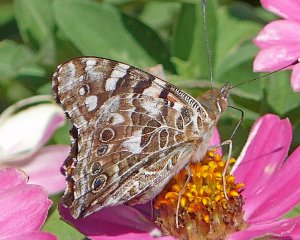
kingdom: Animalia
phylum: Arthropoda
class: Insecta
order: Lepidoptera
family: Nymphalidae
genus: Vanessa
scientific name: Vanessa cardui
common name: Painted Lady
